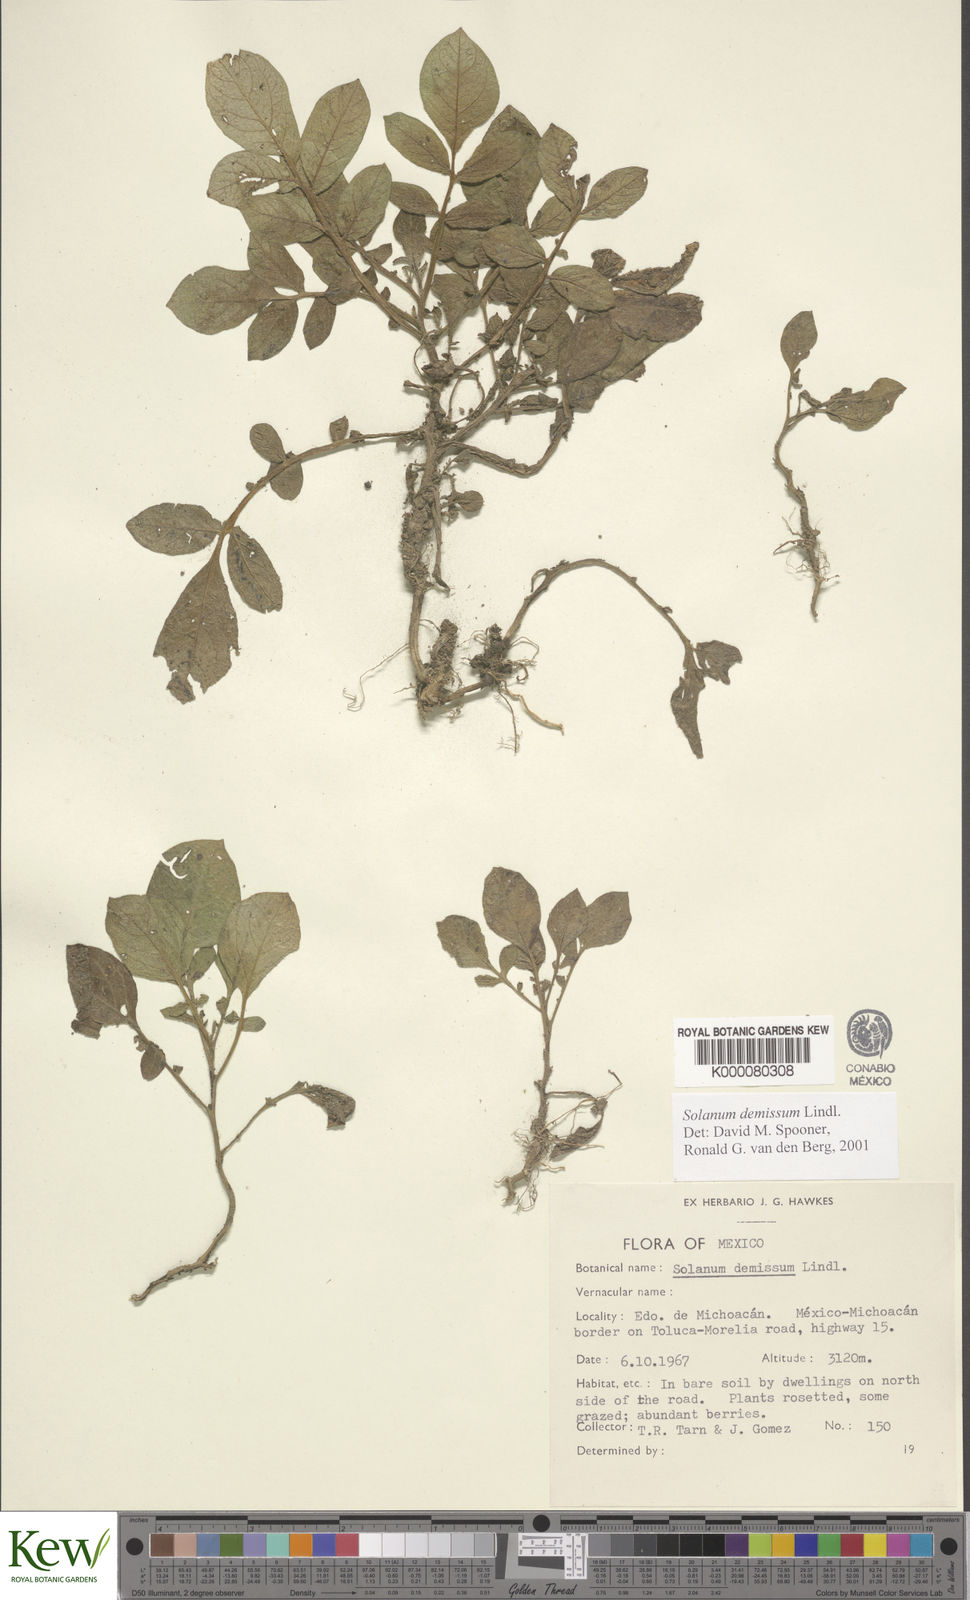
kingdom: Plantae
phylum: Tracheophyta
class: Magnoliopsida
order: Solanales
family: Solanaceae
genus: Solanum
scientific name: Solanum demissum
